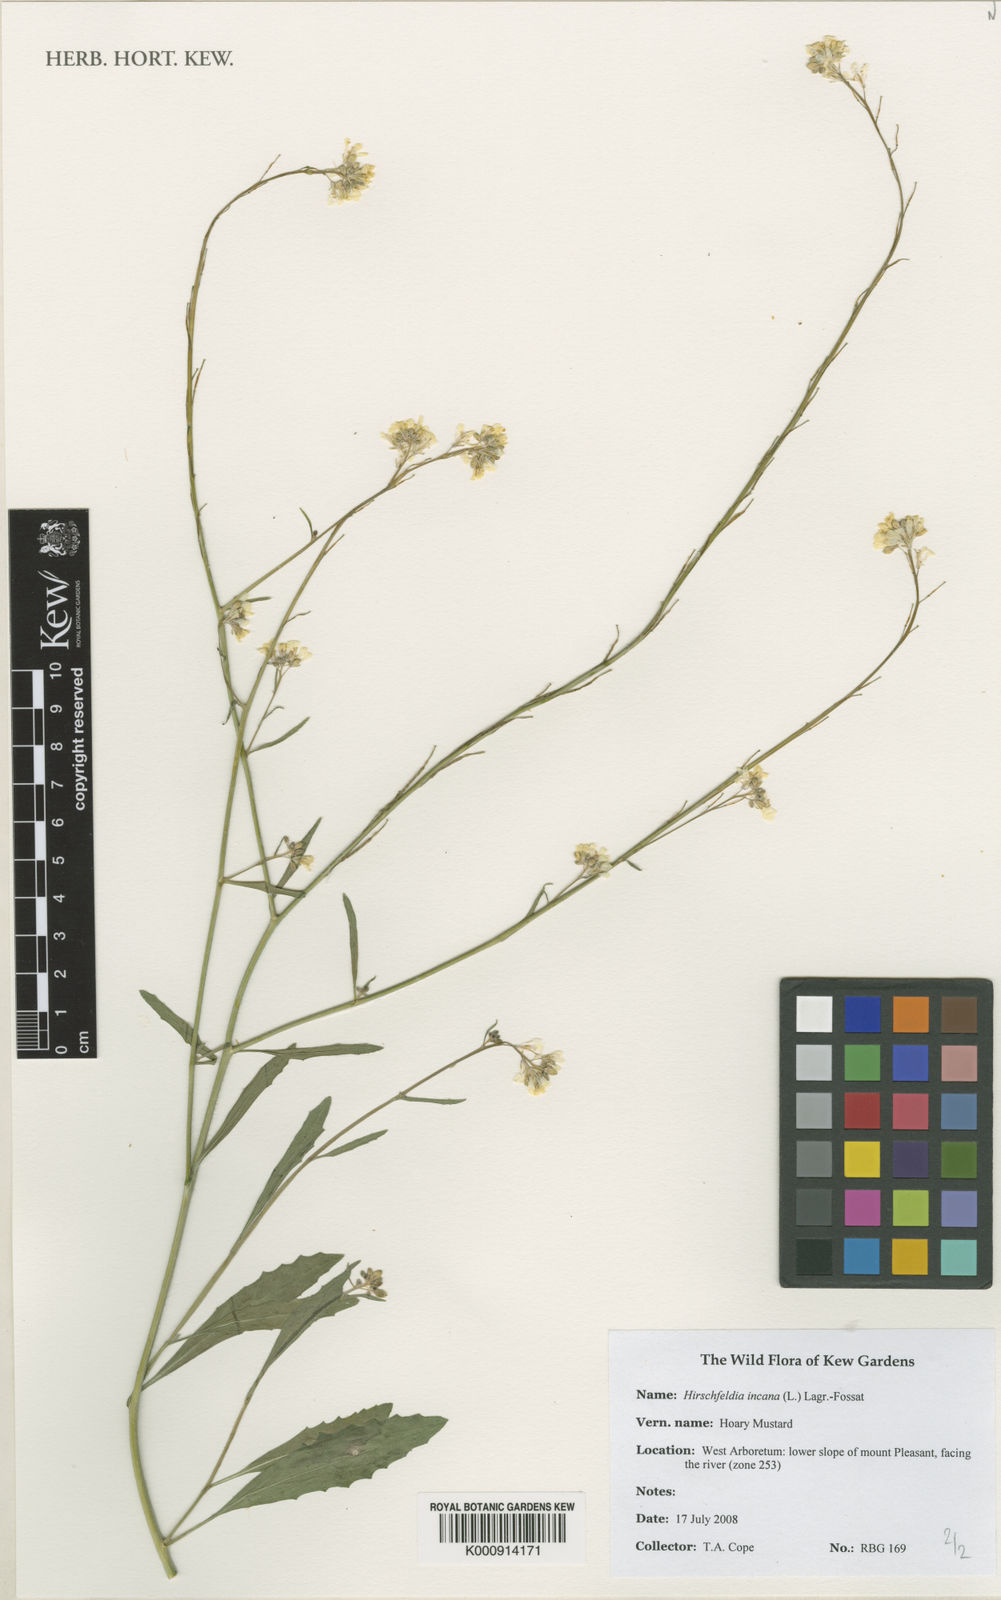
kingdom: Plantae
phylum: Tracheophyta
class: Magnoliopsida
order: Brassicales
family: Brassicaceae
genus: Hirschfeldia
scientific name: Hirschfeldia incana
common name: Hoary mustard
